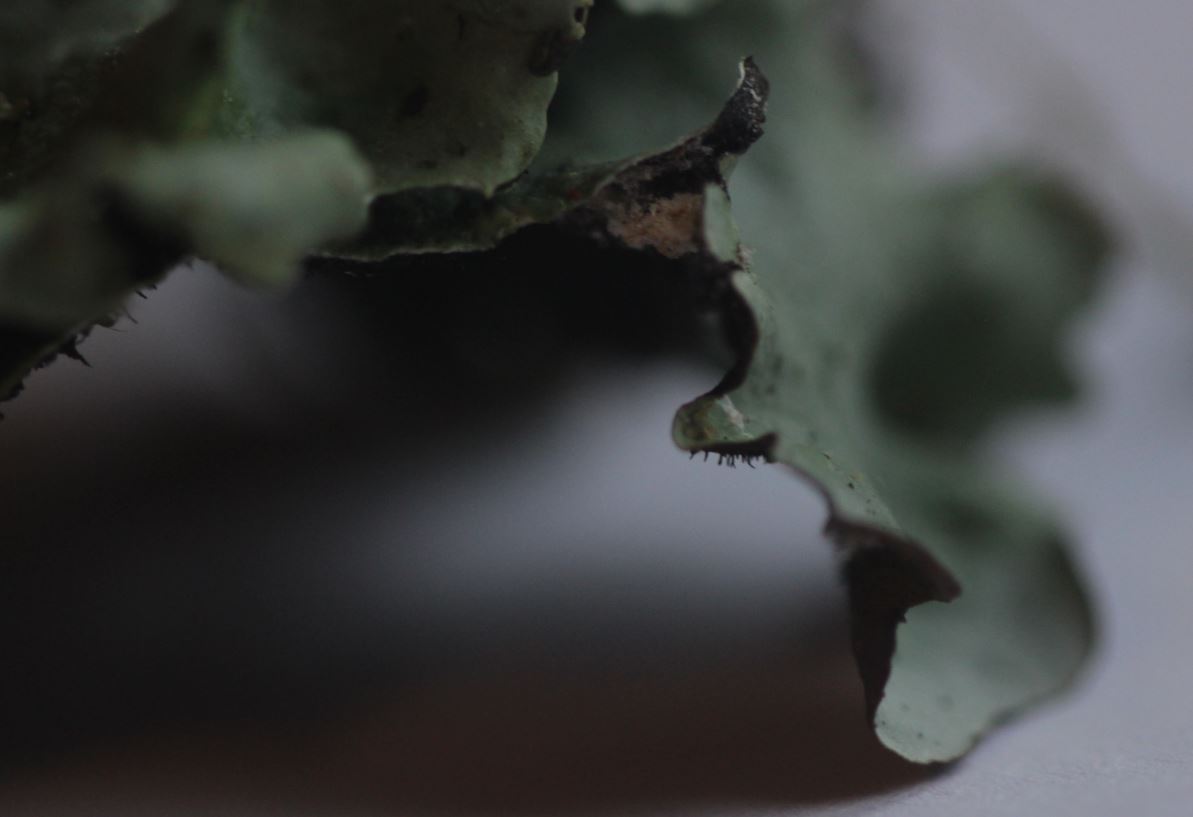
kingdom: Fungi
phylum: Ascomycota
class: Lecanoromycetes
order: Lecanorales
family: Parmeliaceae
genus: Parmotrema
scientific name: Parmotrema perlatum
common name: trådet skållav
